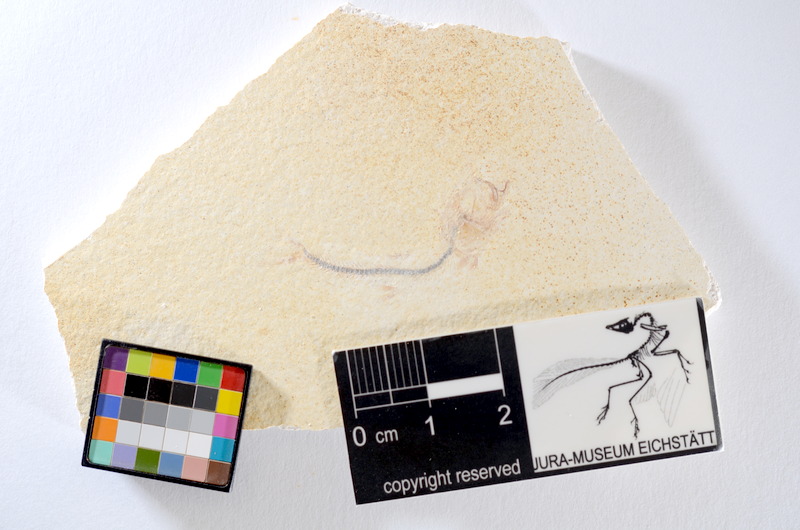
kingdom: Animalia
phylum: Chordata
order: Salmoniformes
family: Orthogonikleithridae
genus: Orthogonikleithrus
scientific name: Orthogonikleithrus hoelli
